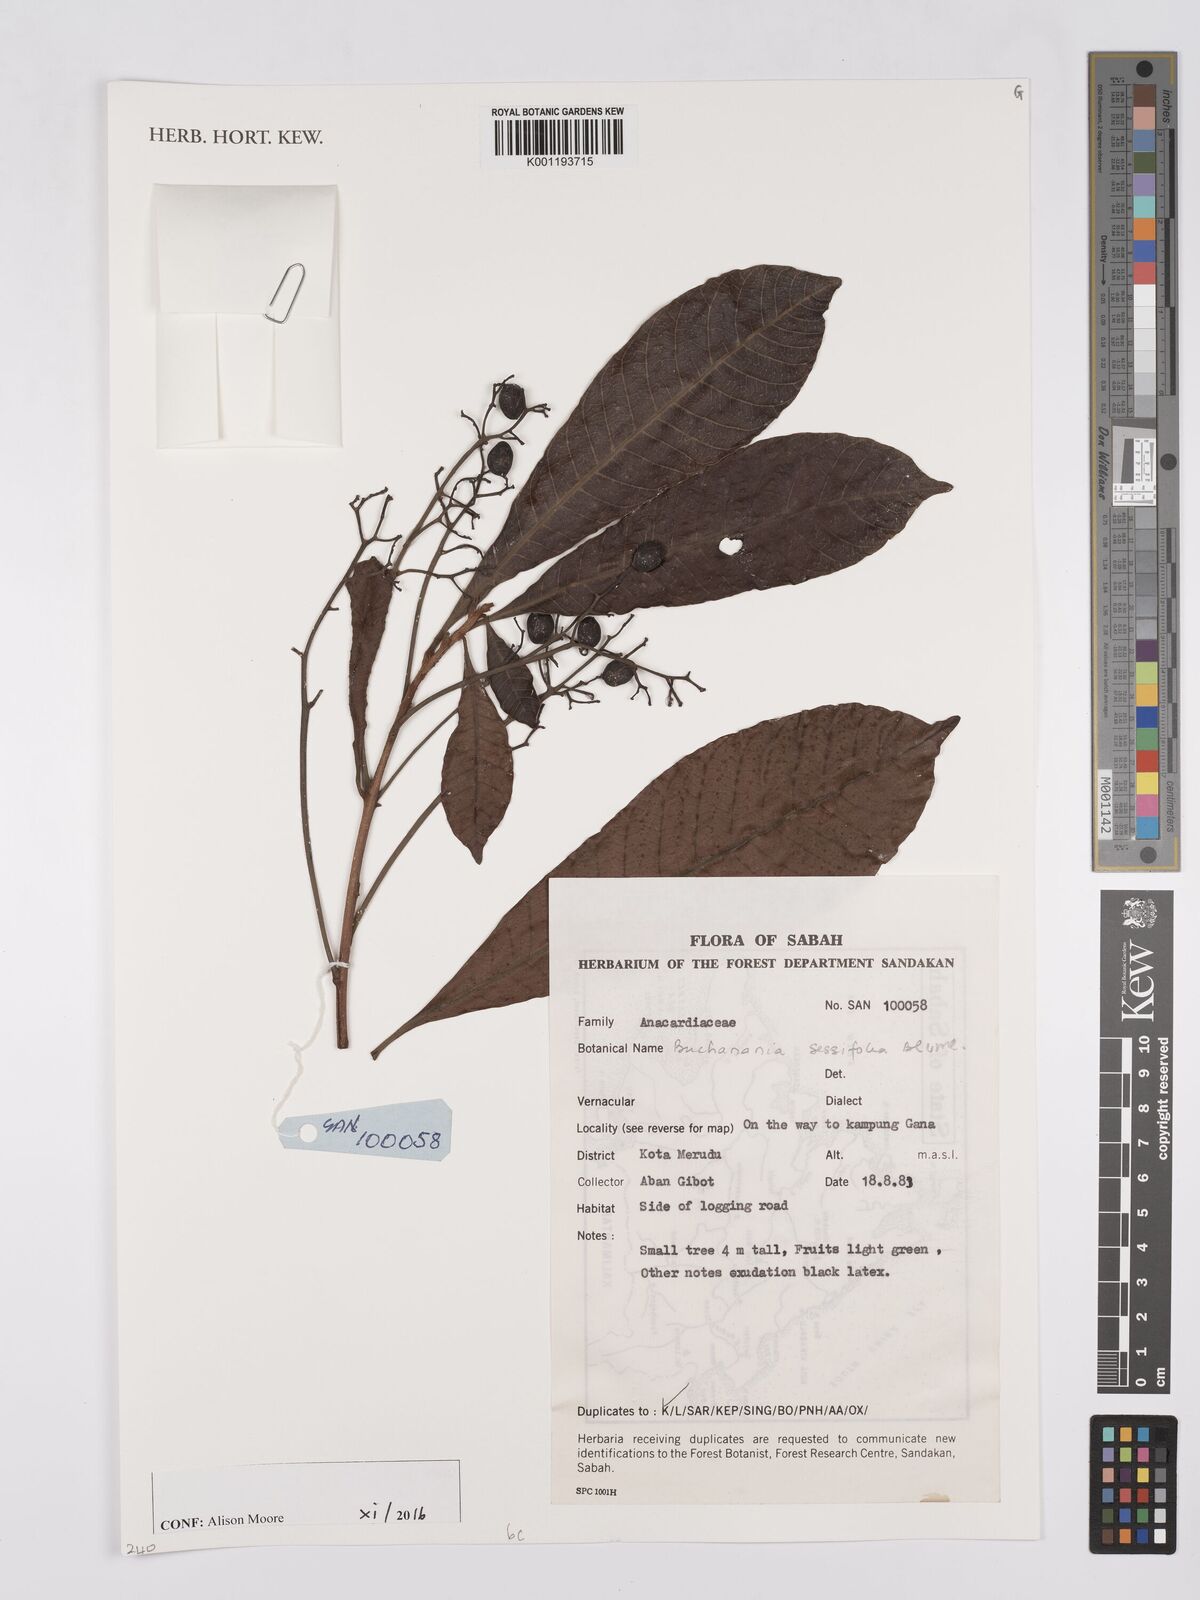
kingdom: Plantae
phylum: Tracheophyta
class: Magnoliopsida
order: Sapindales
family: Anacardiaceae
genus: Buchanania
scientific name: Buchanania sessifolia
